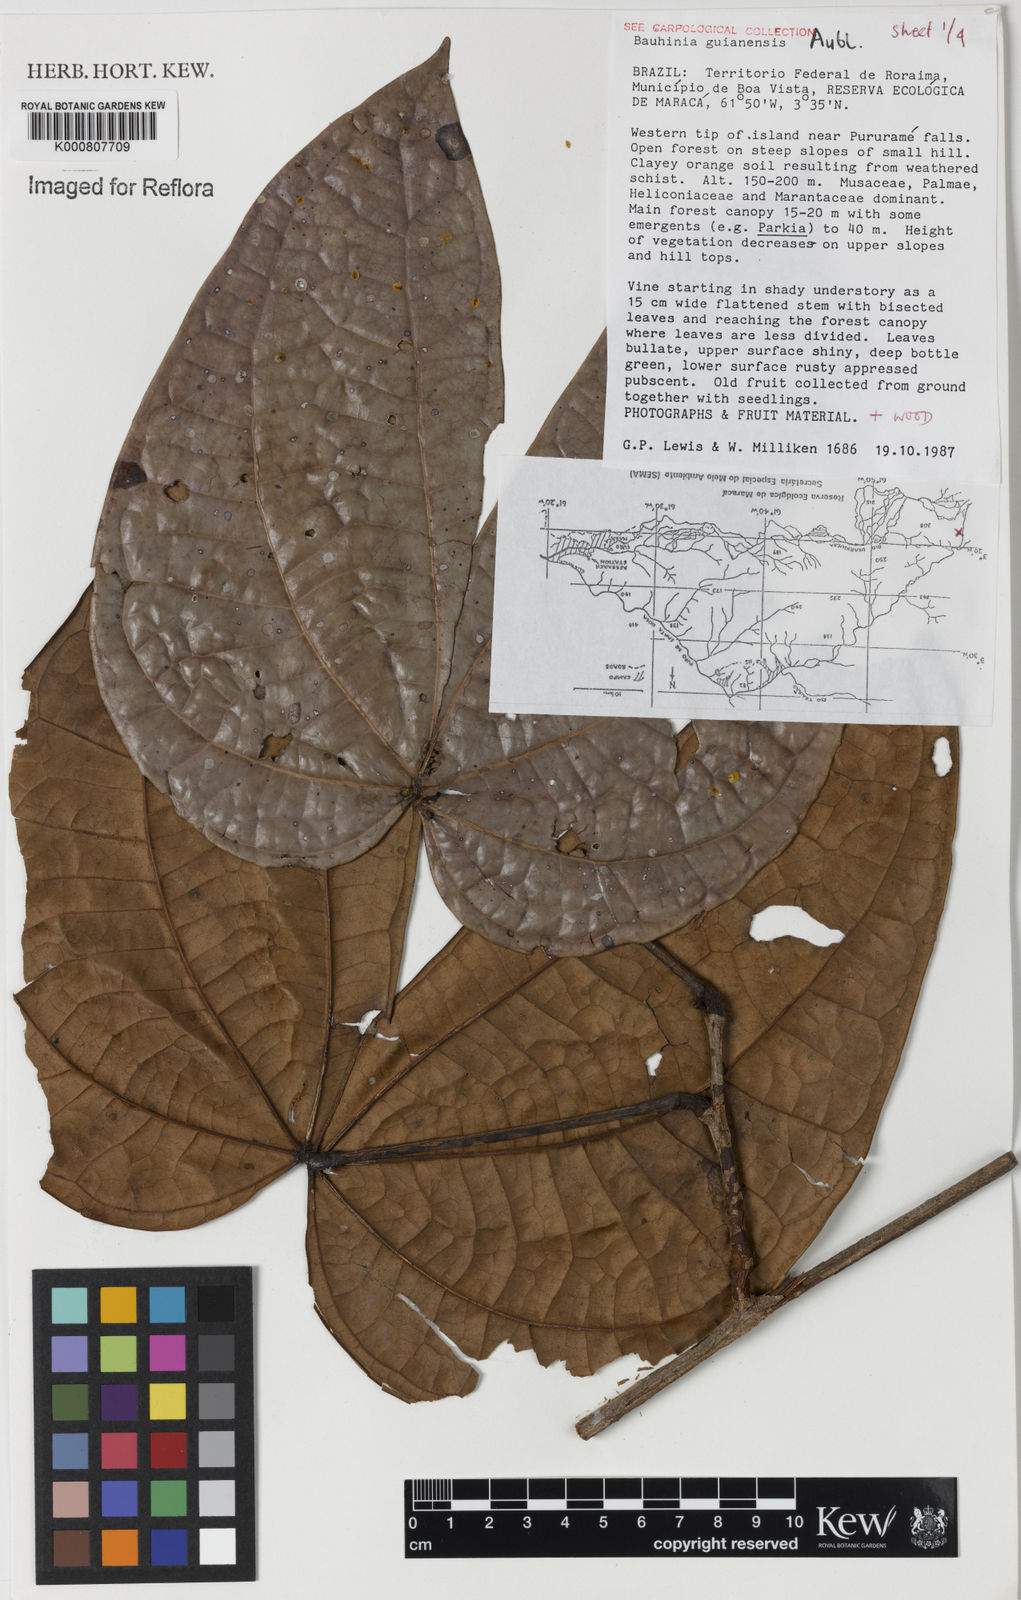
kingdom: Plantae
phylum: Tracheophyta
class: Magnoliopsida
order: Fabales
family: Fabaceae
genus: Schnella
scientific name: Schnella guianensis
